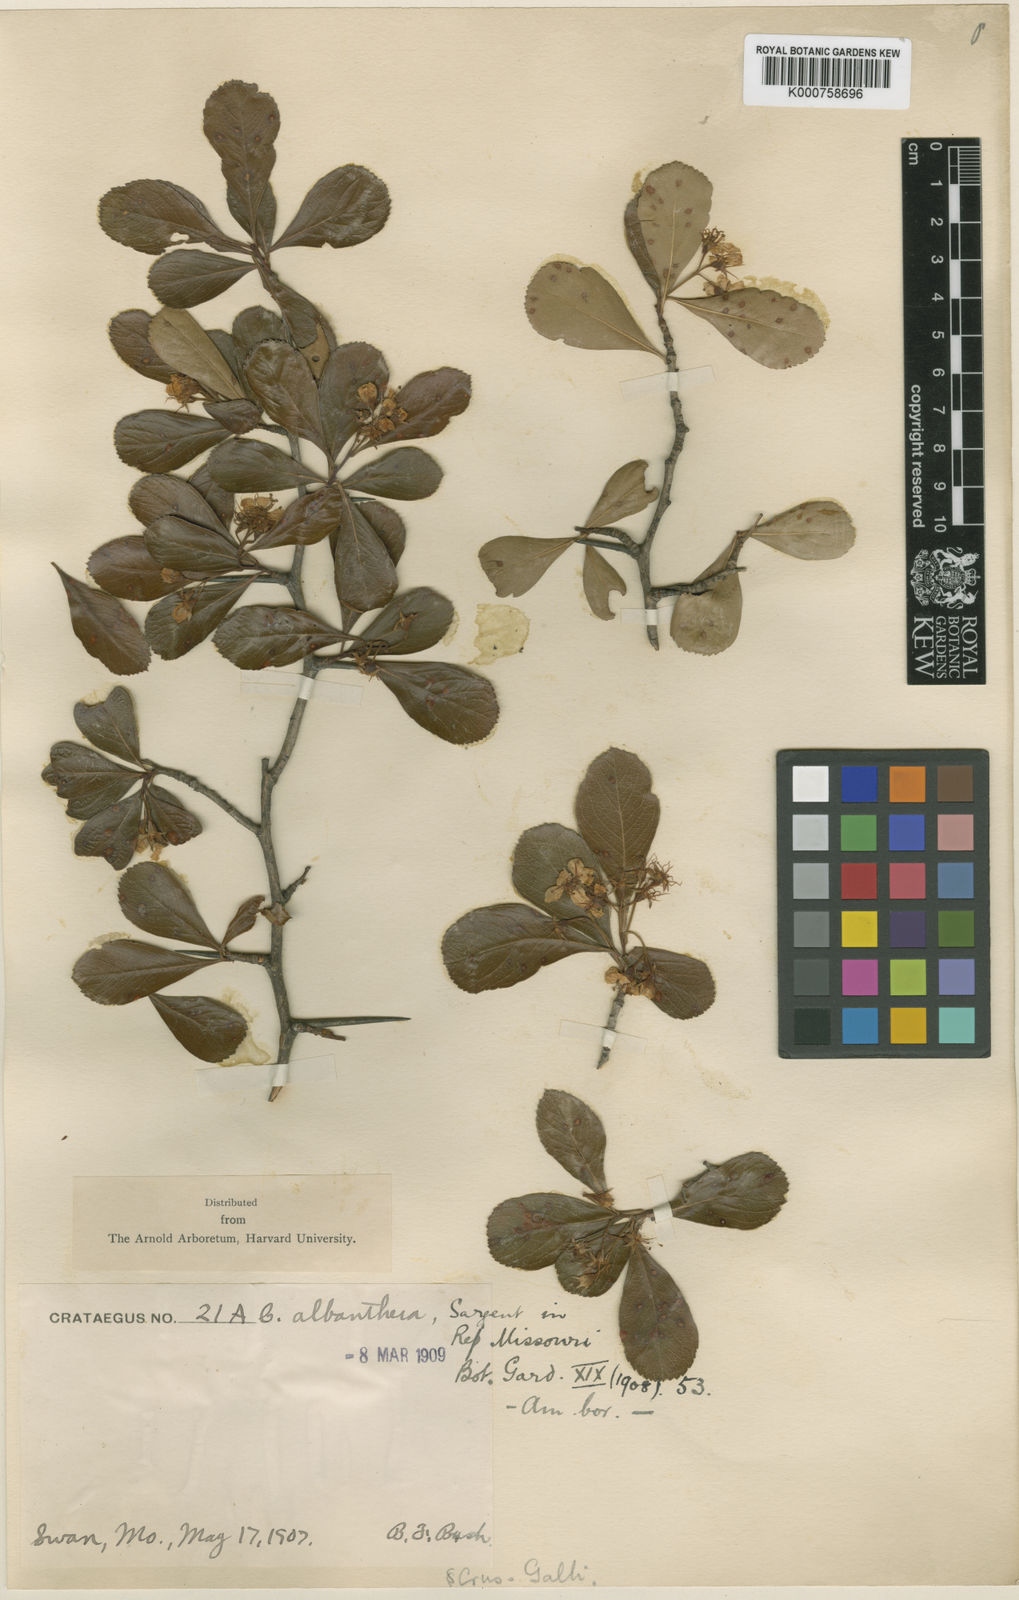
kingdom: Plantae
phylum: Tracheophyta
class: Magnoliopsida
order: Rosales
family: Rosaceae
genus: Crataegus
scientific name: Crataegus chrysocarpa
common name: Fire-berry hawthorn
